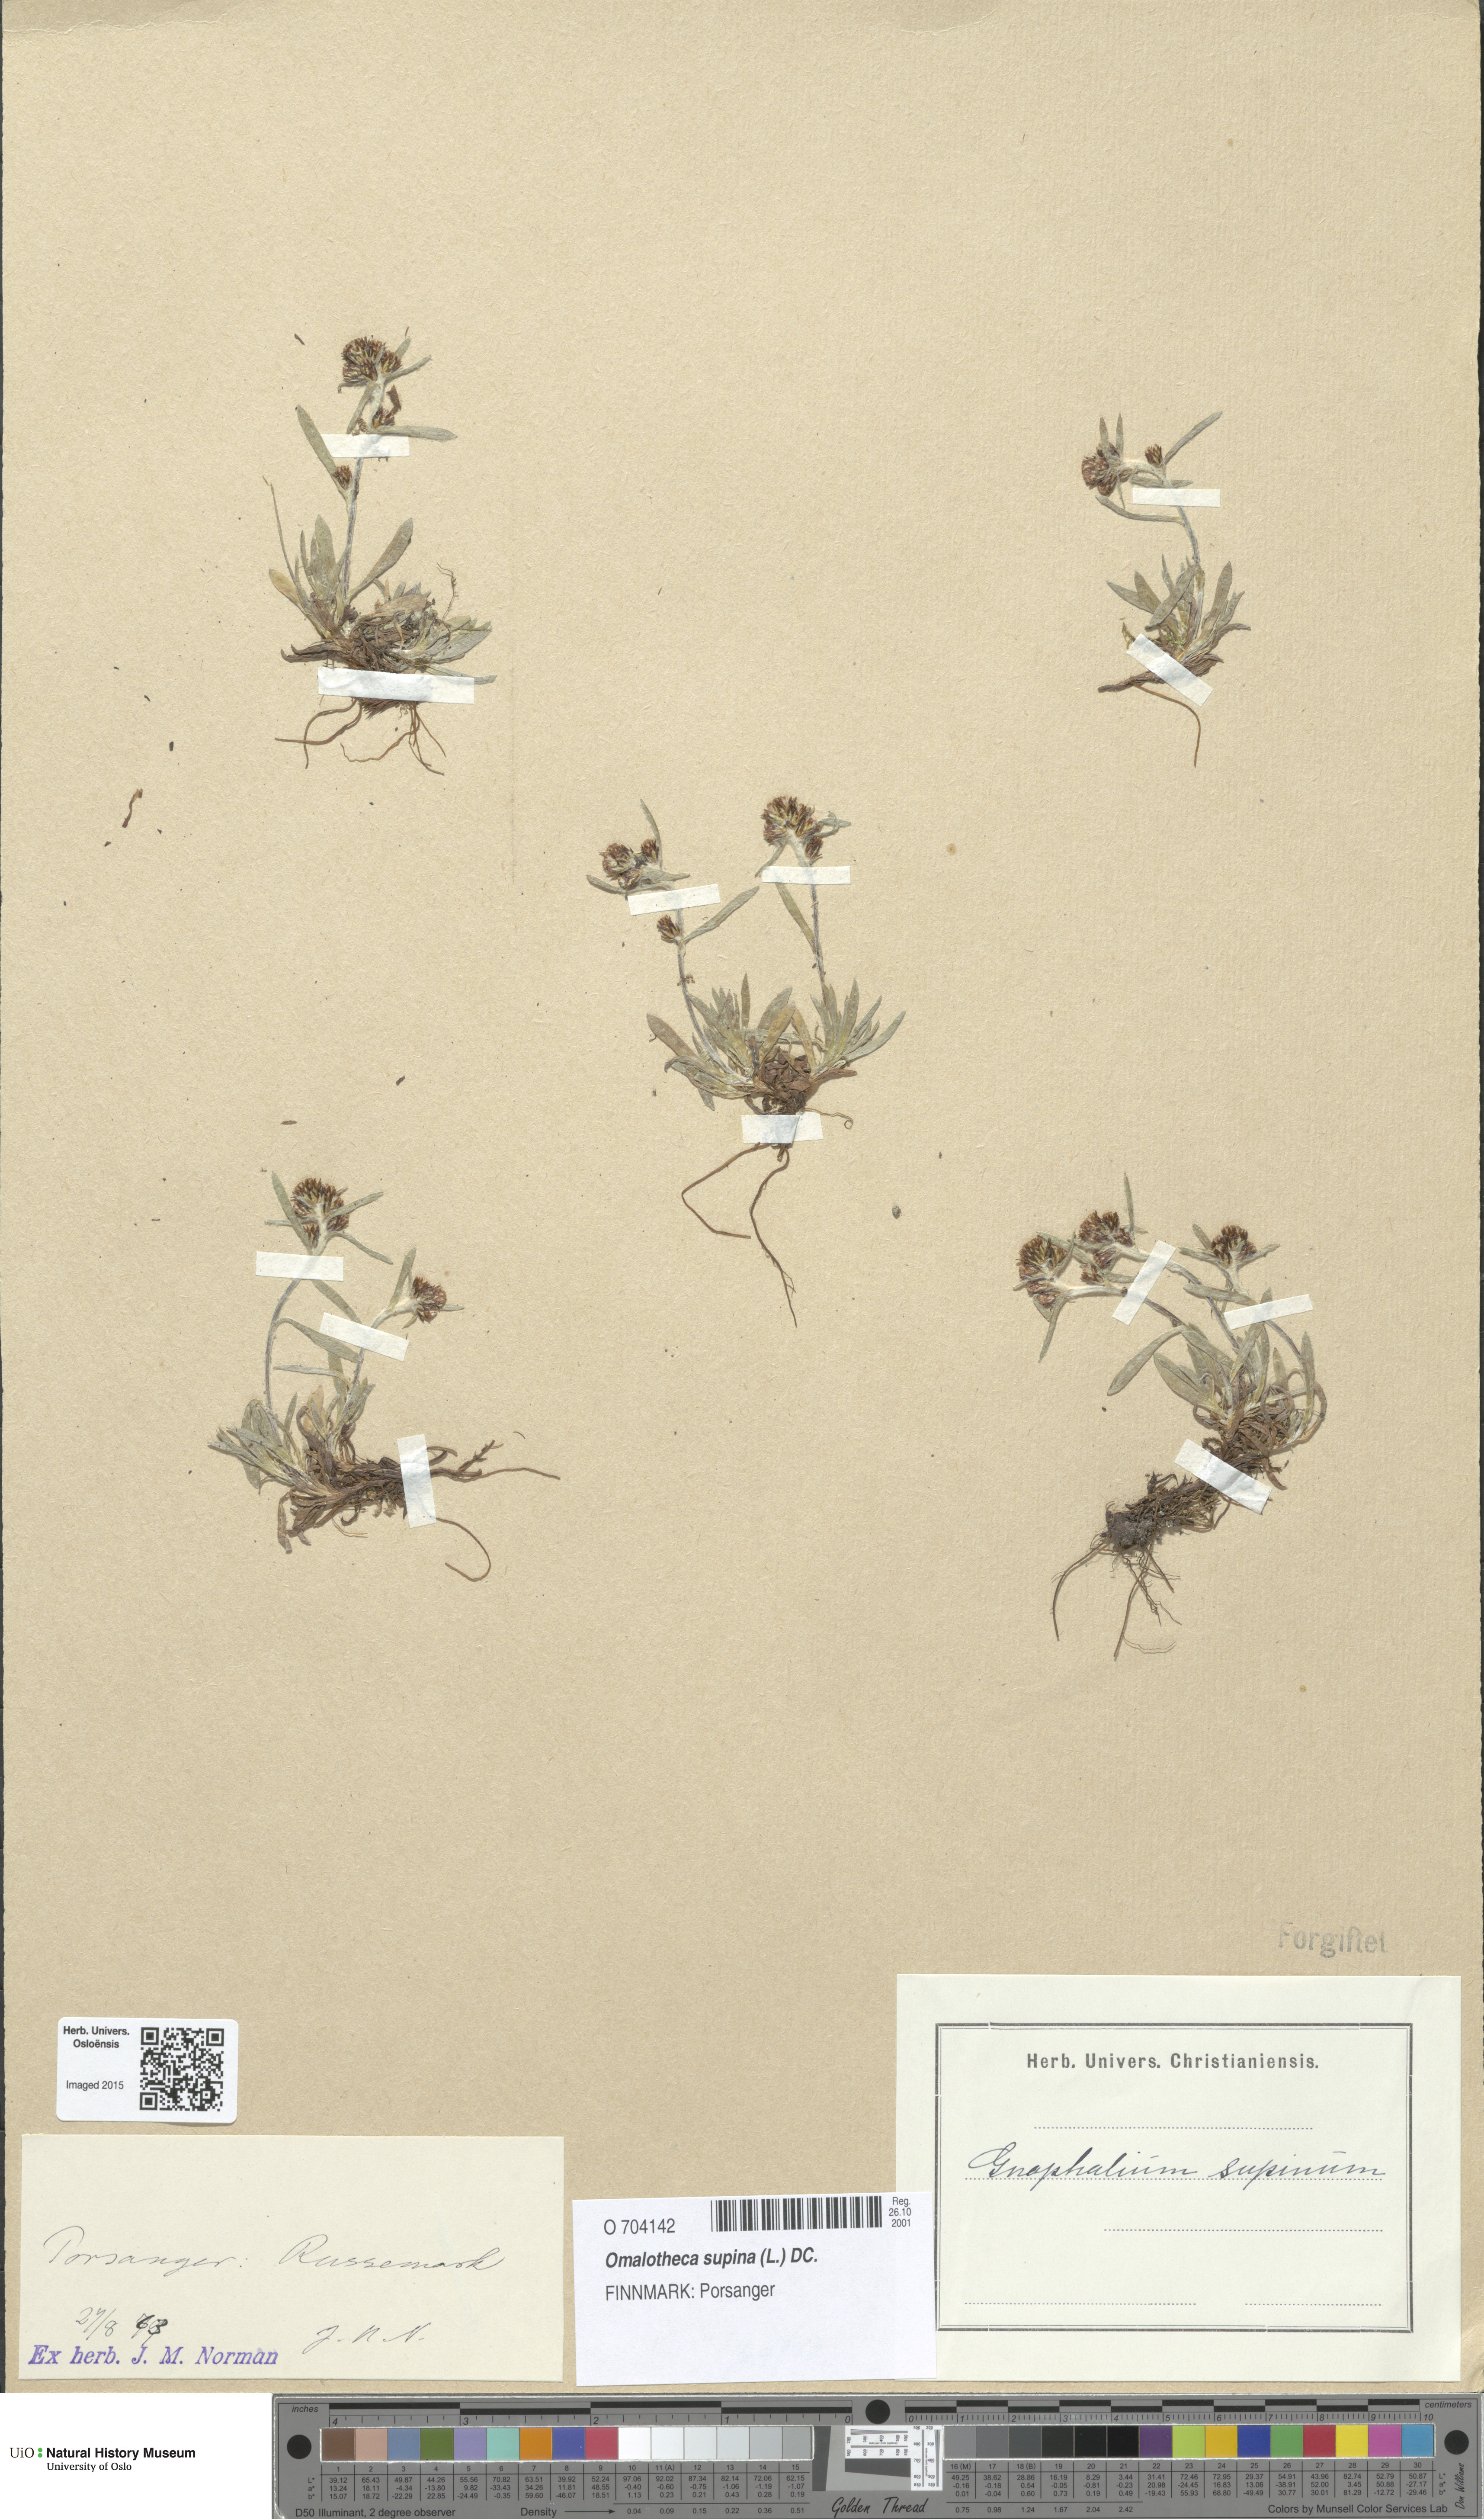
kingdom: Plantae
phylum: Tracheophyta
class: Magnoliopsida
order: Asterales
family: Asteraceae
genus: Omalotheca
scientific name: Omalotheca supina
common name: Alpine arctic-cudweed
